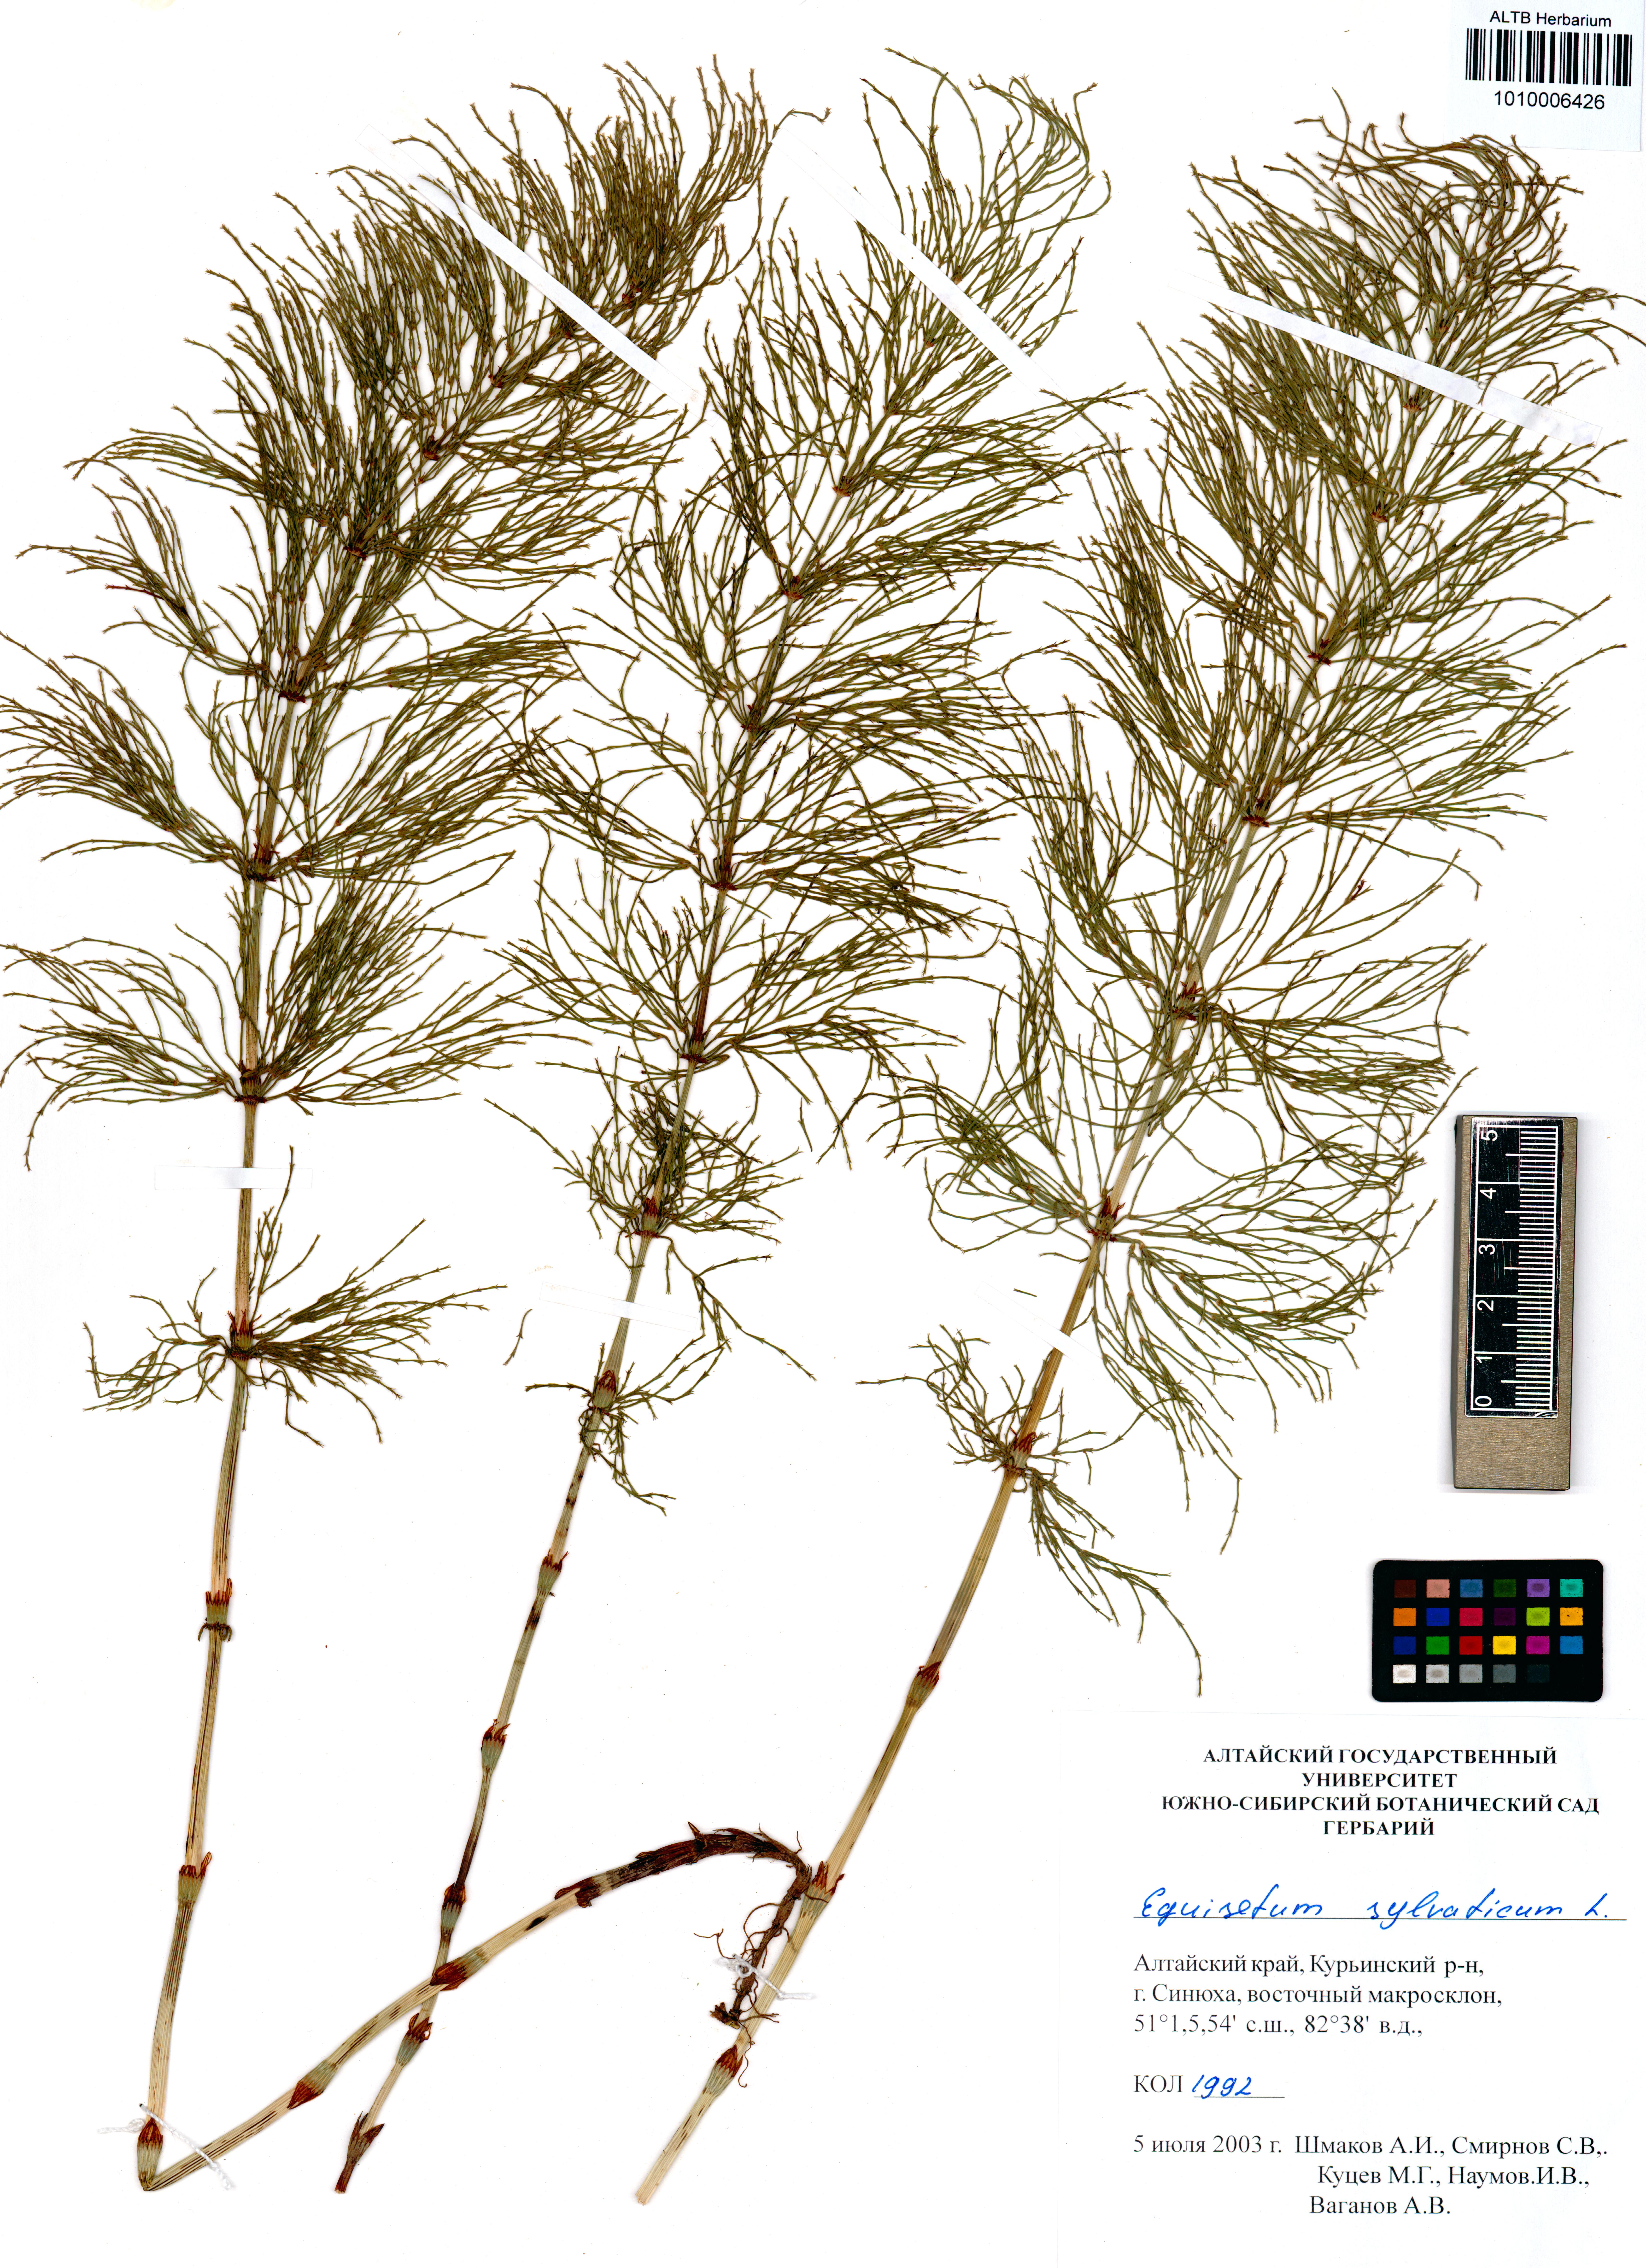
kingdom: Plantae
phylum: Tracheophyta
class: Polypodiopsida
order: Equisetales
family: Equisetaceae
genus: Equisetum
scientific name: Equisetum sylvaticum
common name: Wood horsetail
